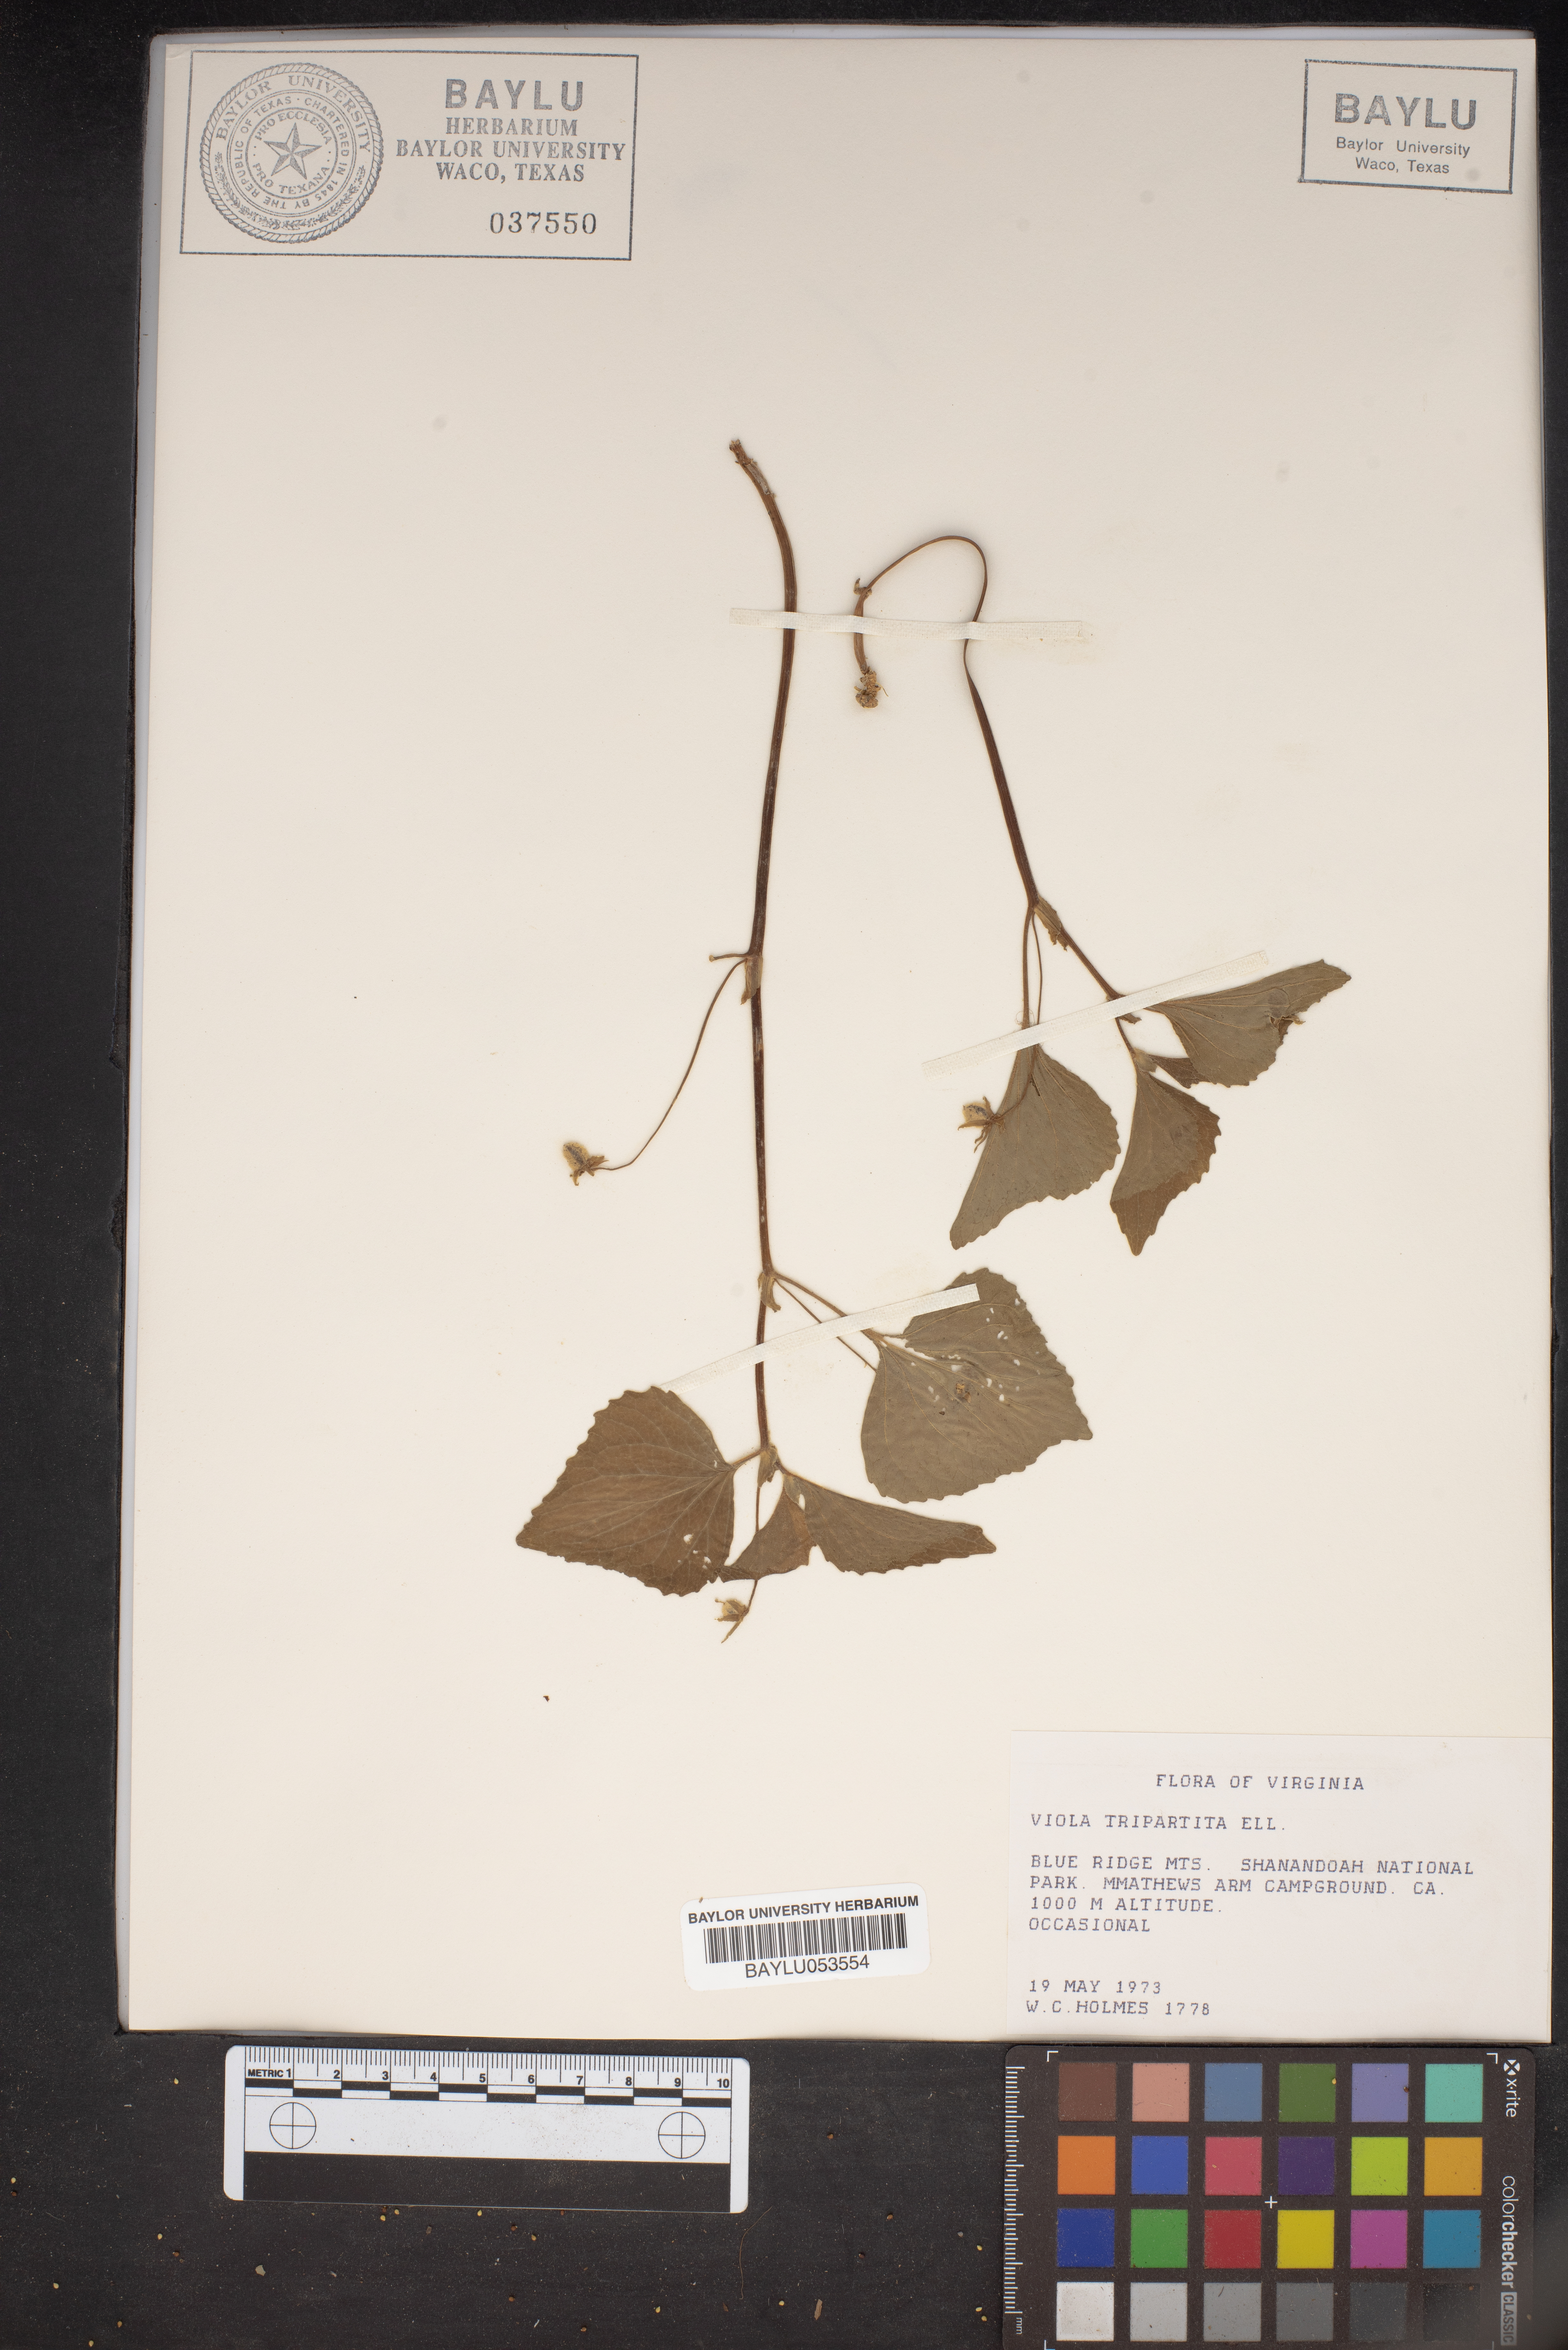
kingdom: Plantae
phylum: Tracheophyta
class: Magnoliopsida
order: Malpighiales
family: Violaceae
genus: Viola
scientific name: Viola tripartita
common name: Three-part violet
